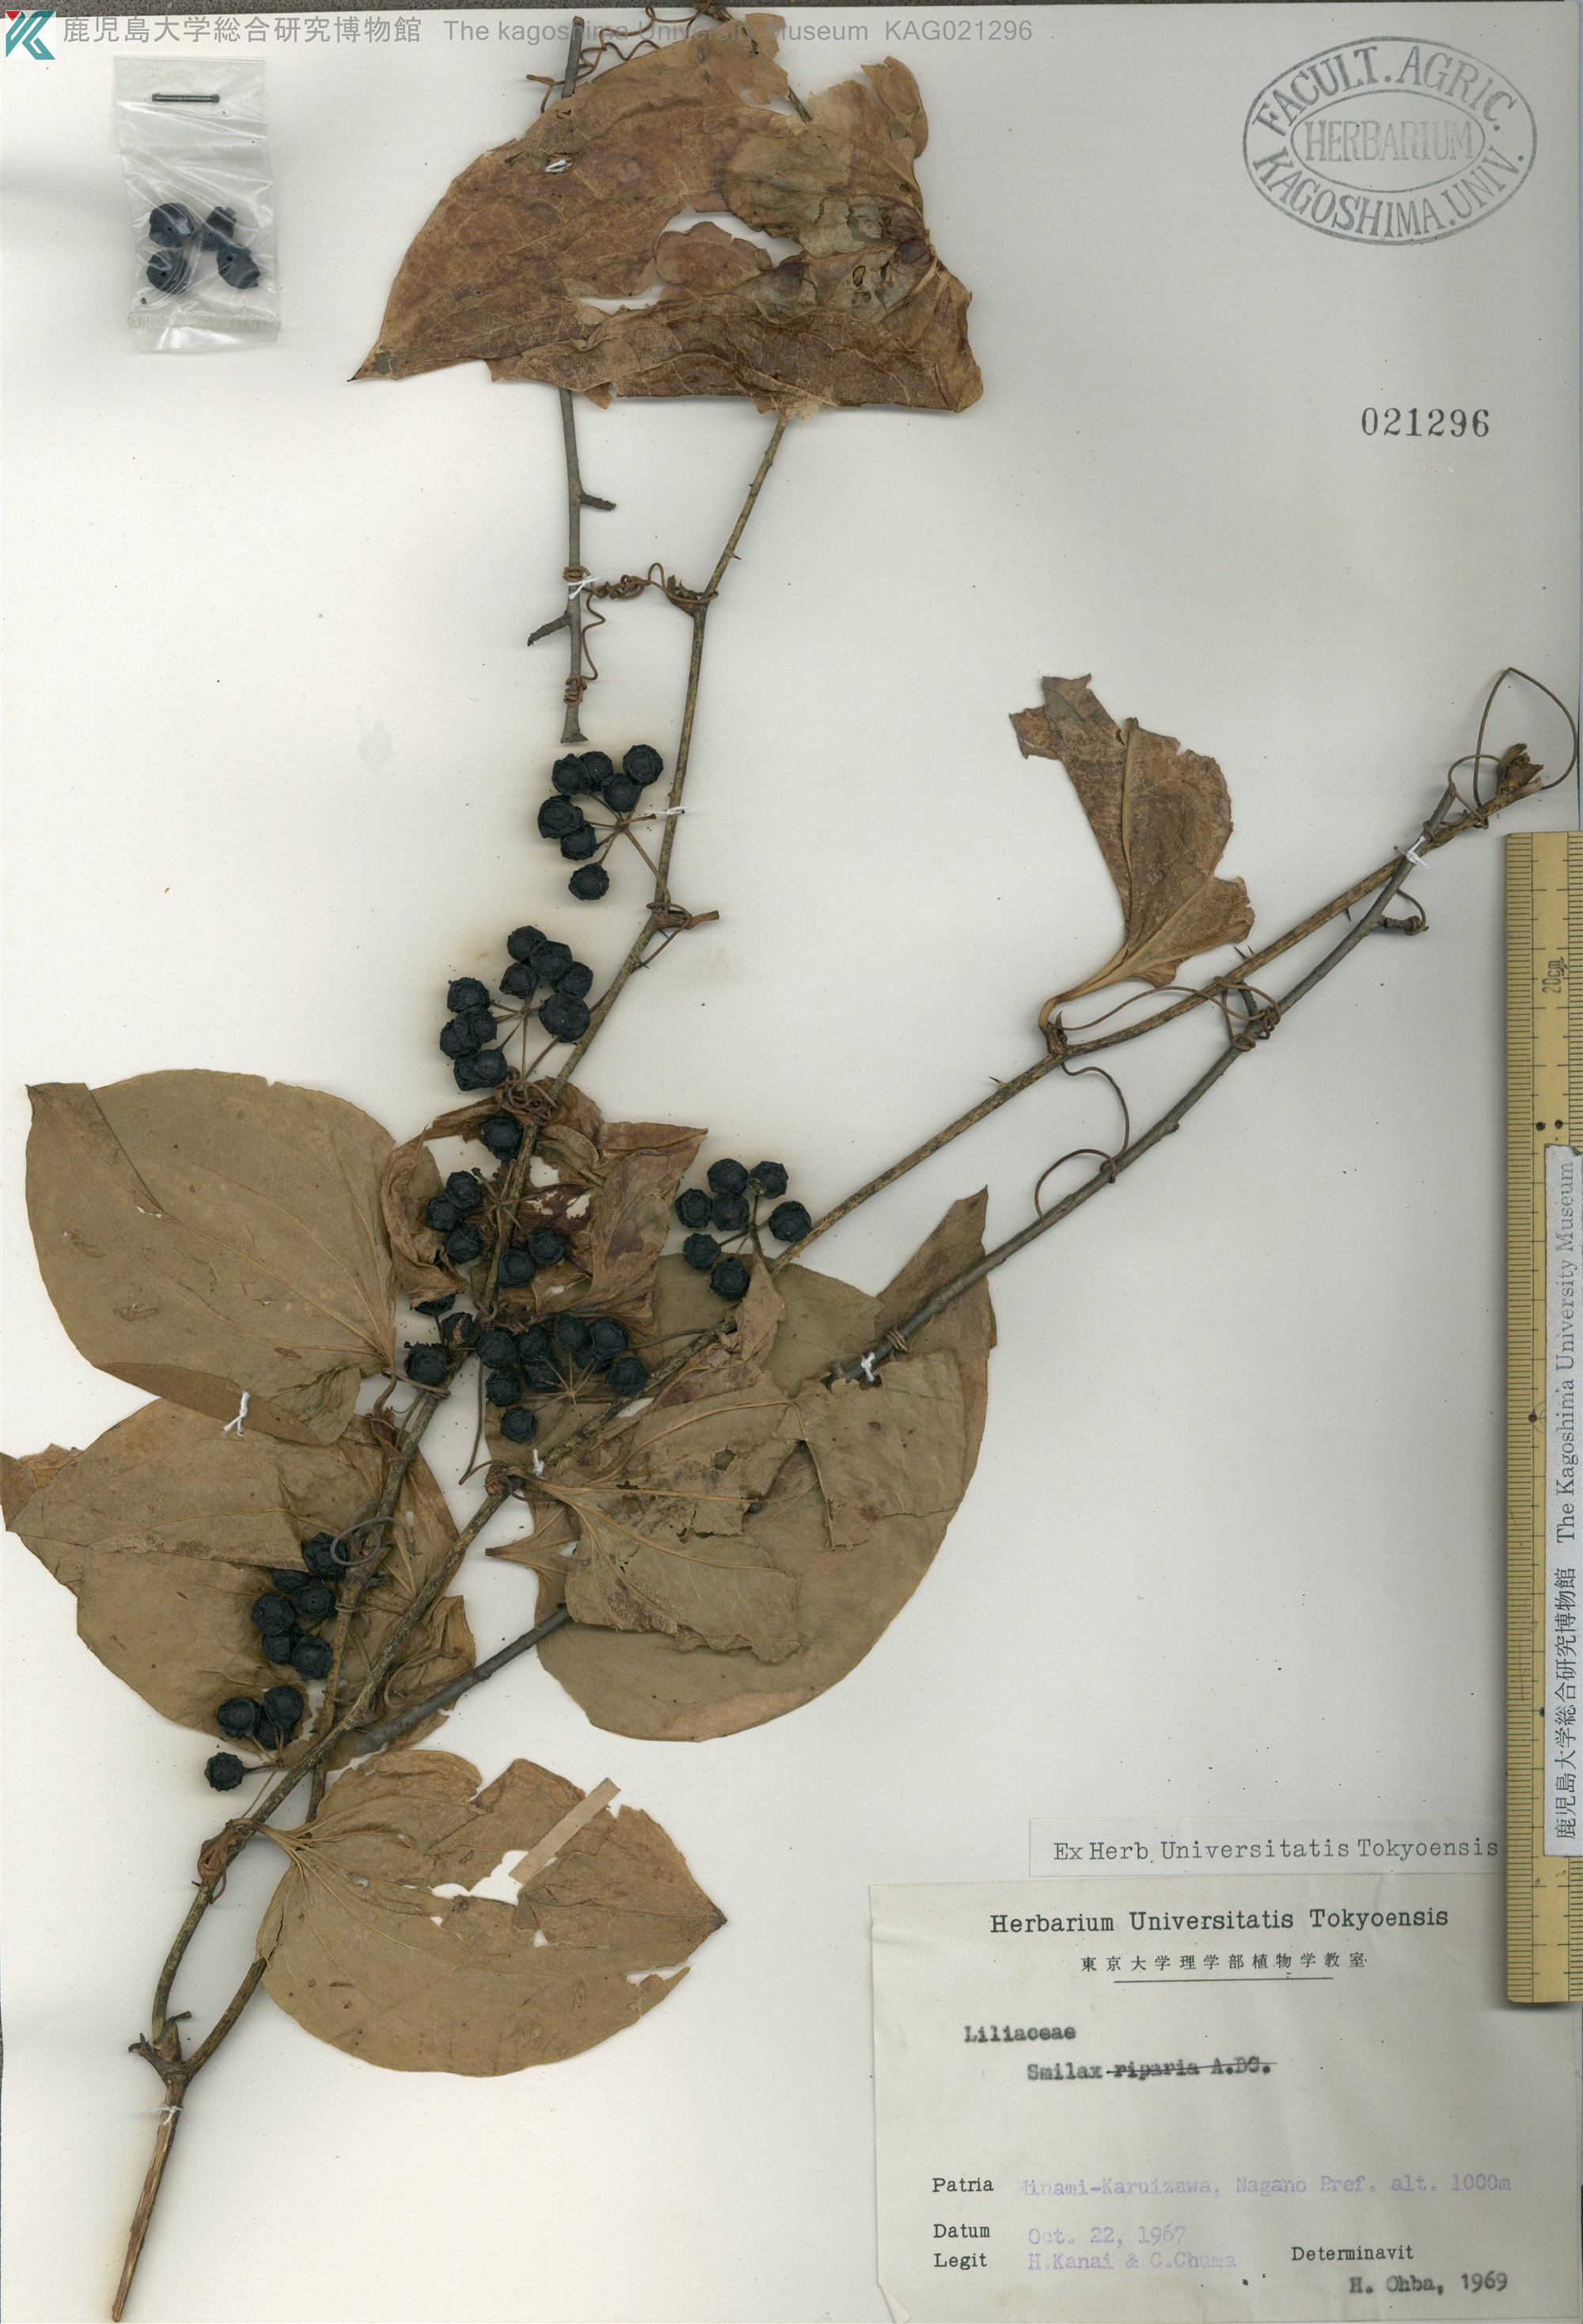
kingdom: Plantae
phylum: Tracheophyta
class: Liliopsida
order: Liliales
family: Smilacaceae
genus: Smilax
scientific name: Smilax sieboldii
